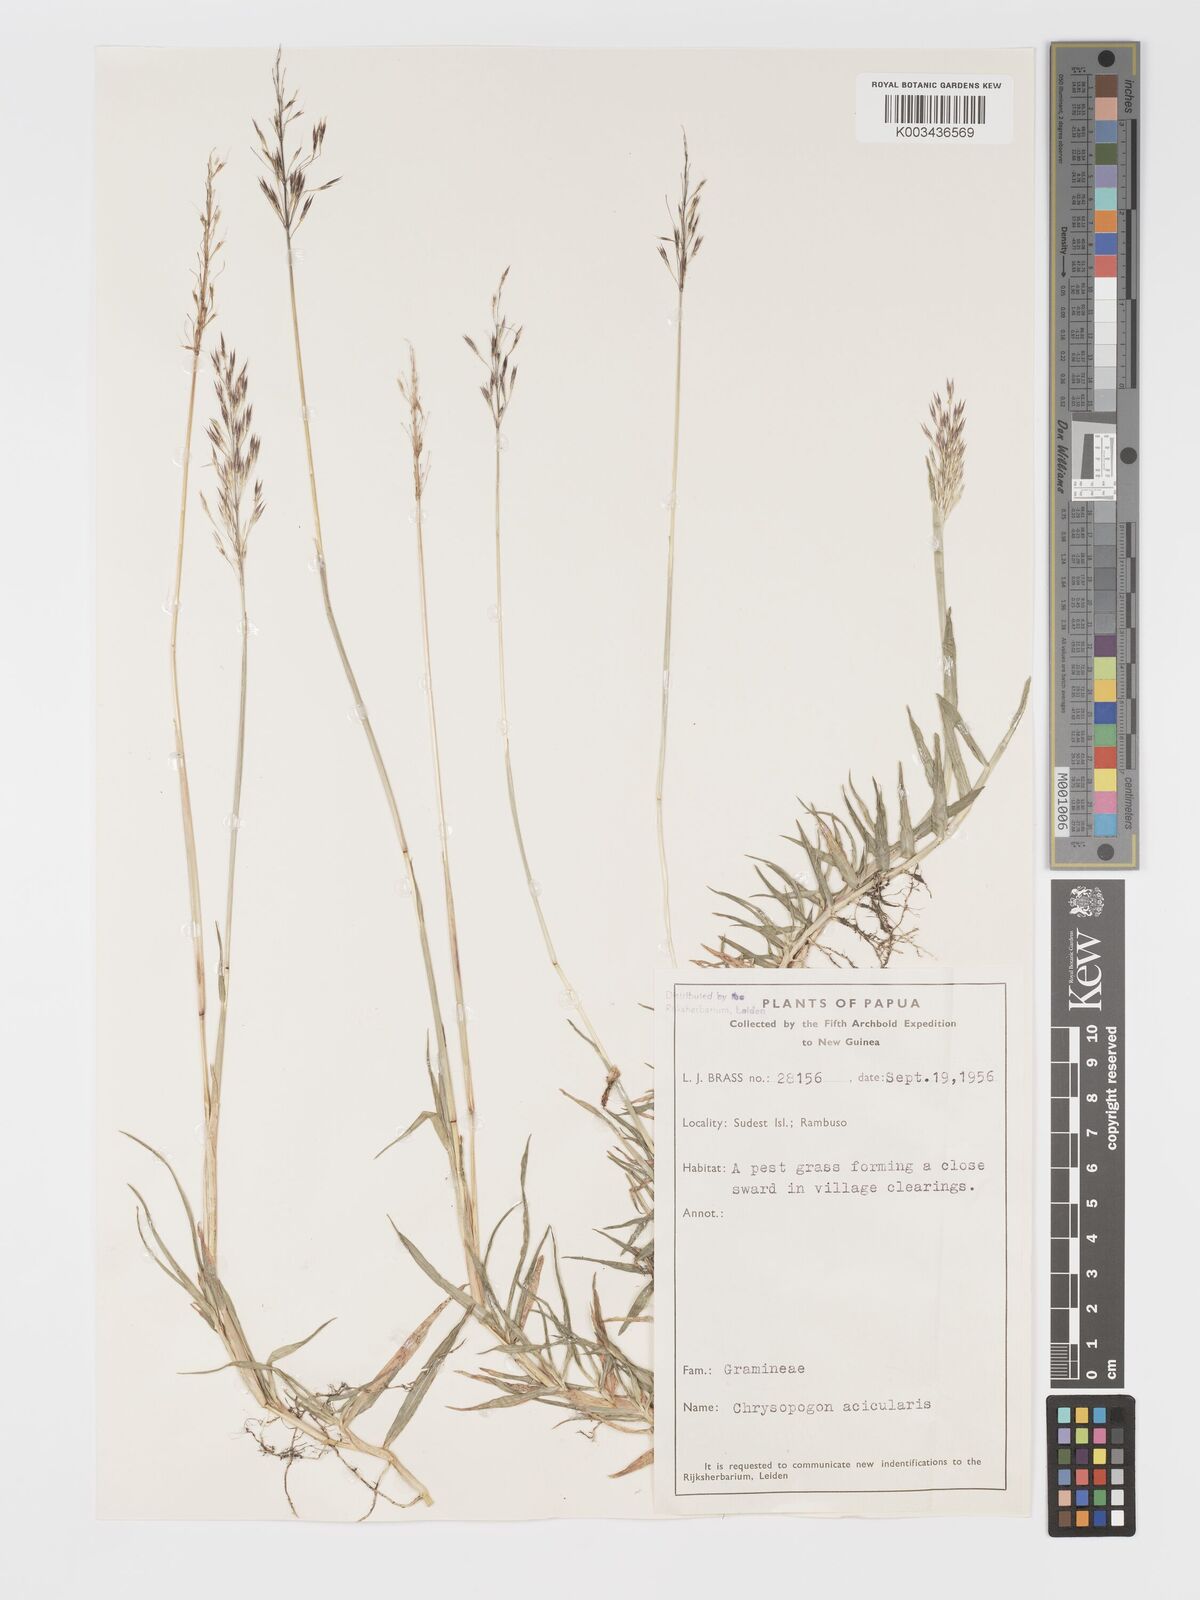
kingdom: Plantae
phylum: Tracheophyta
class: Liliopsida
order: Poales
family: Poaceae
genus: Chrysopogon
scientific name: Chrysopogon aciculatus
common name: Pilipiliula
